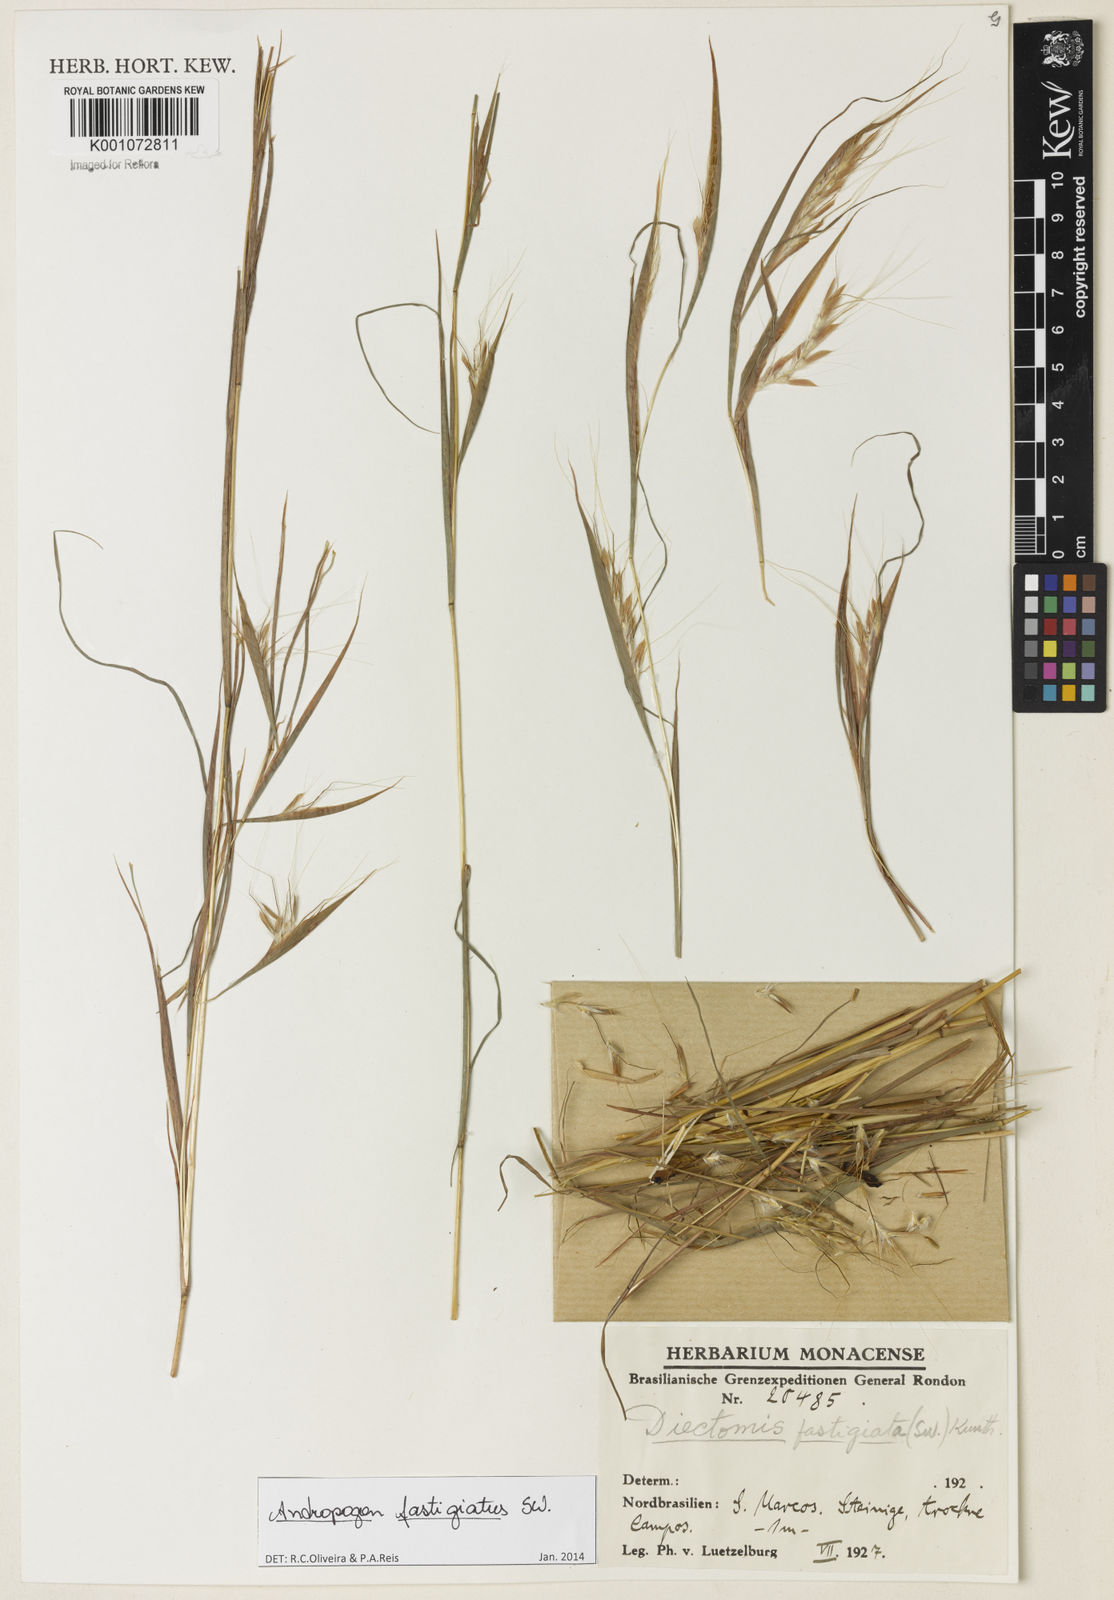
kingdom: Plantae
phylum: Tracheophyta
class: Liliopsida
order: Poales
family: Poaceae
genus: Diectomis
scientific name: Diectomis fastigiata
